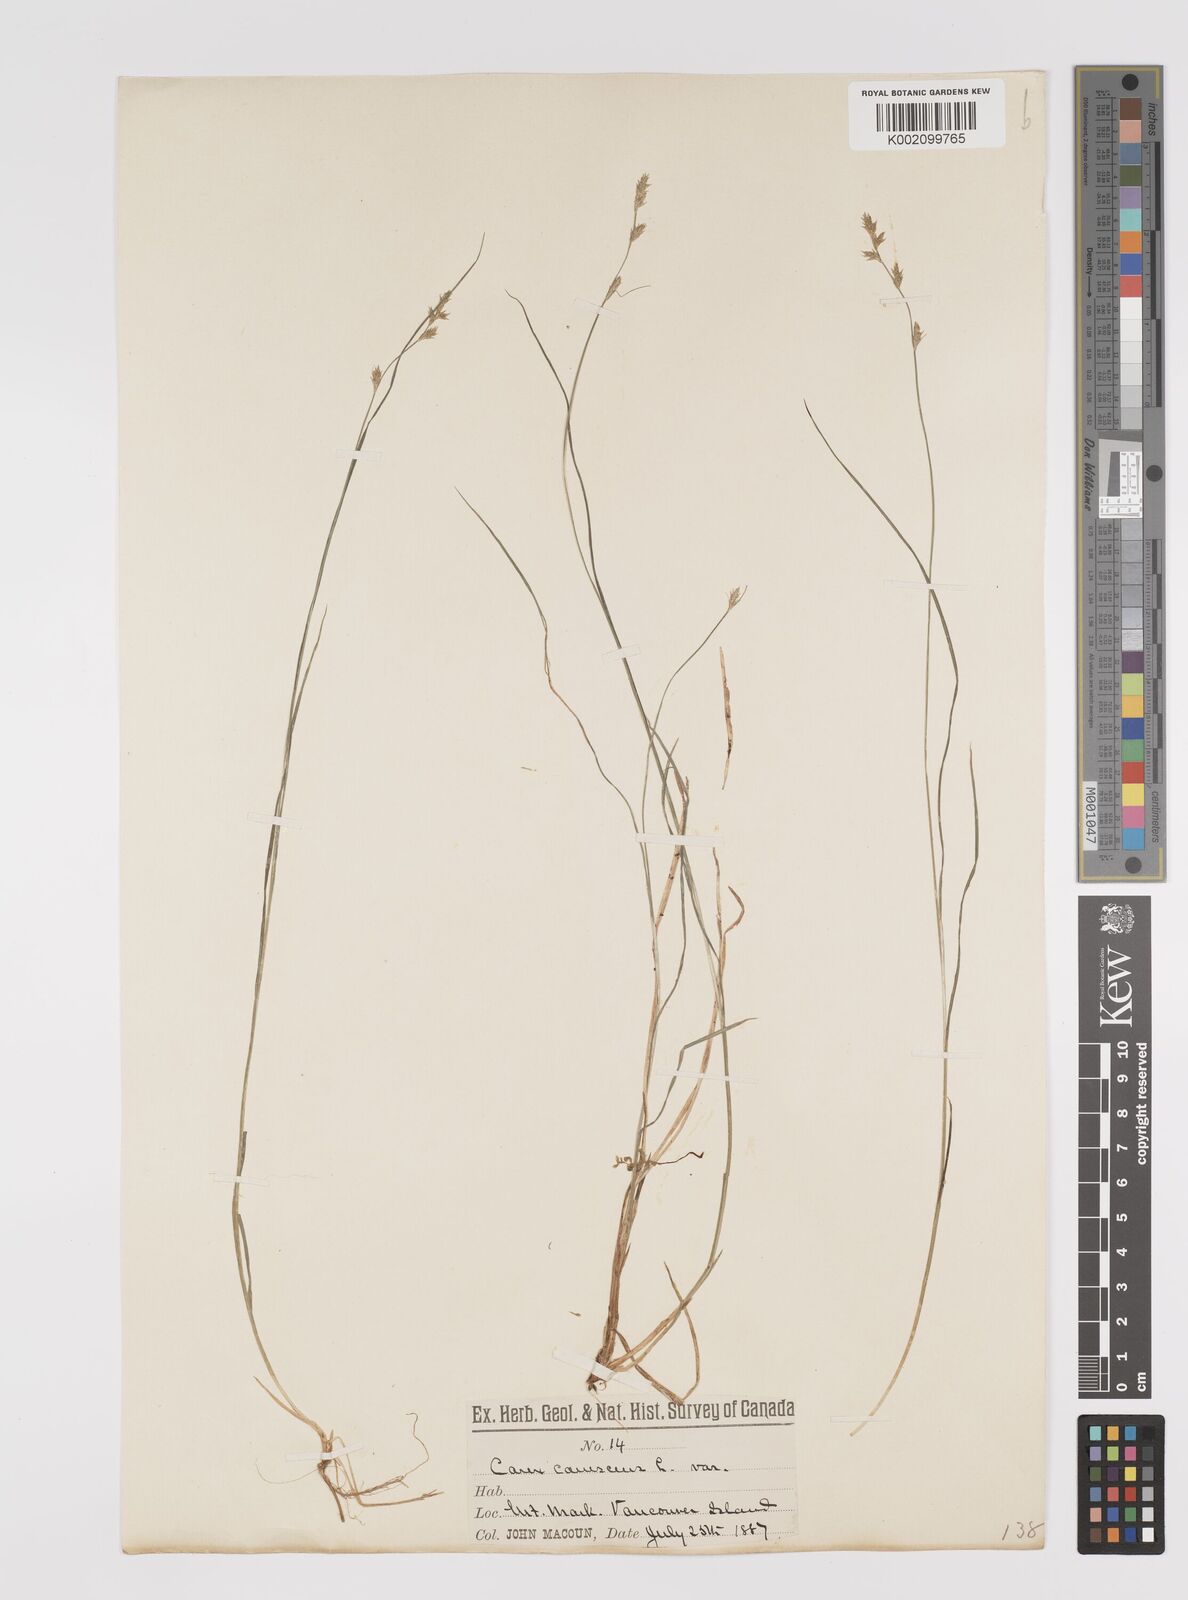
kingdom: Plantae
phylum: Tracheophyta
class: Liliopsida
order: Poales
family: Cyperaceae
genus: Carex
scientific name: Carex curta
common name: White sedge
